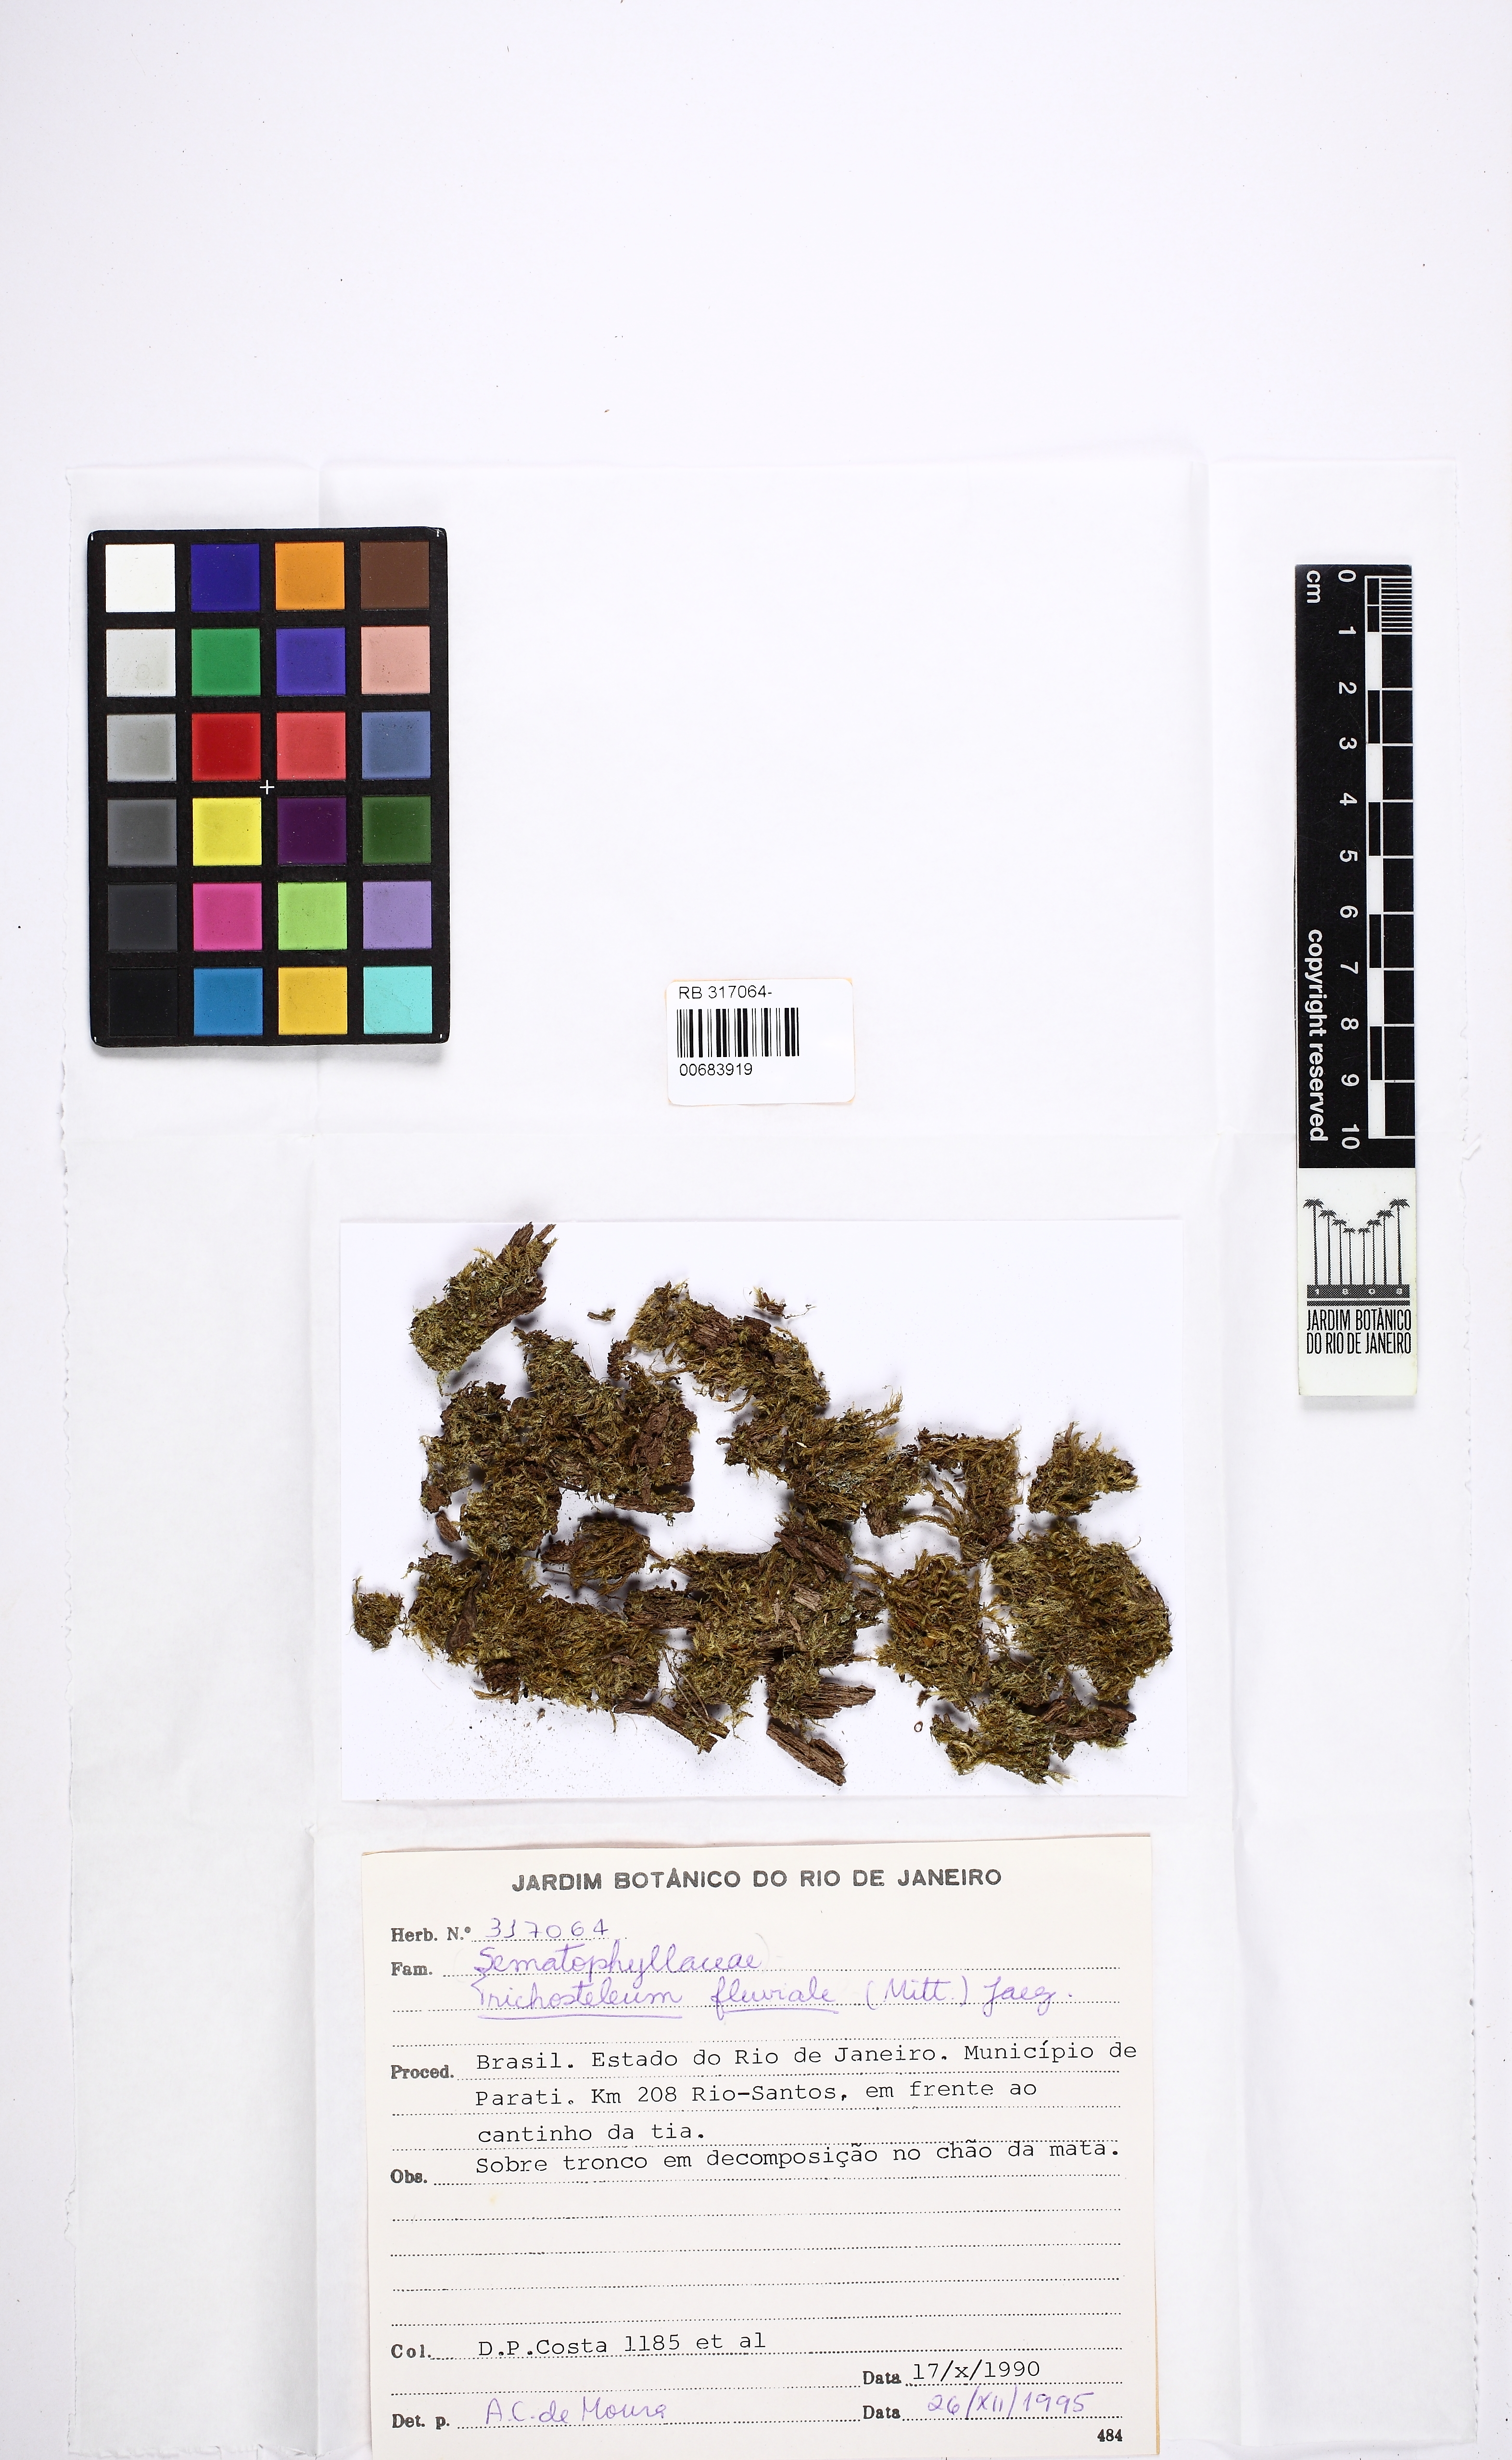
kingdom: Plantae
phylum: Bryophyta
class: Bryopsida
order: Hypnales
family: Sematophyllaceae
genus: Trichosteleum
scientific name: Trichosteleum fluviale
